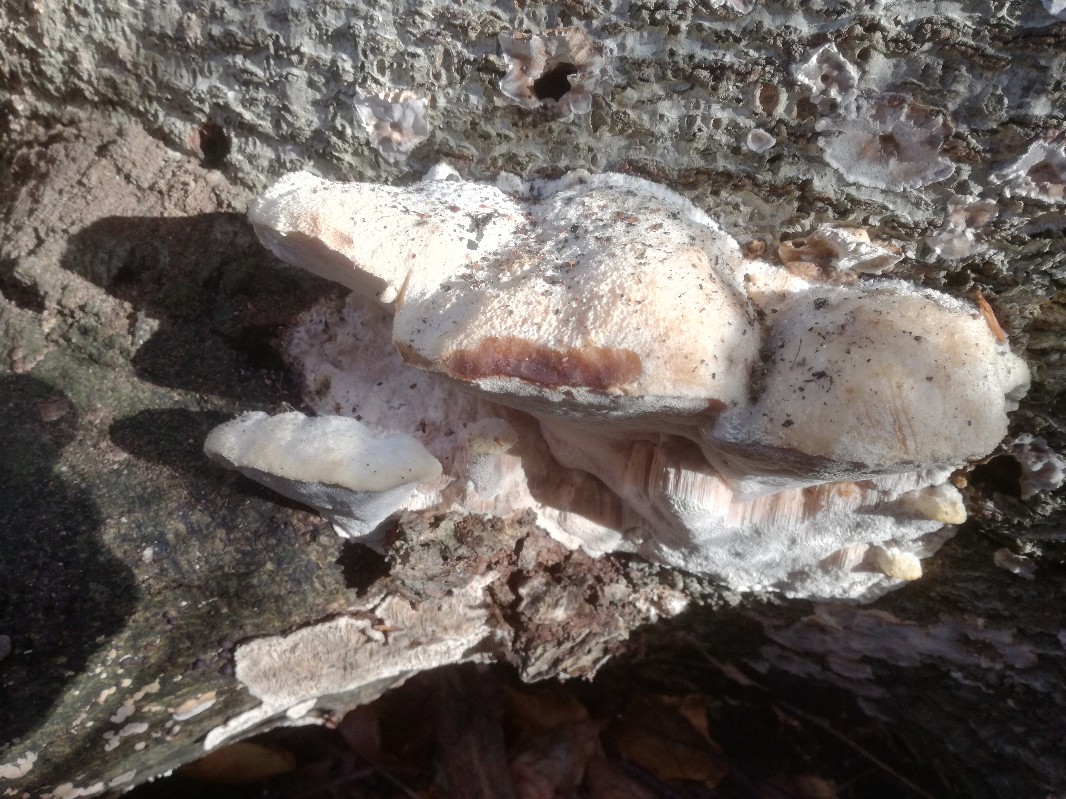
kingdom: Fungi
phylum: Basidiomycota
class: Agaricomycetes
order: Polyporales
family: Meruliaceae
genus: Pappia
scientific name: Pappia fissilis
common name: sej fedtporesvamp
